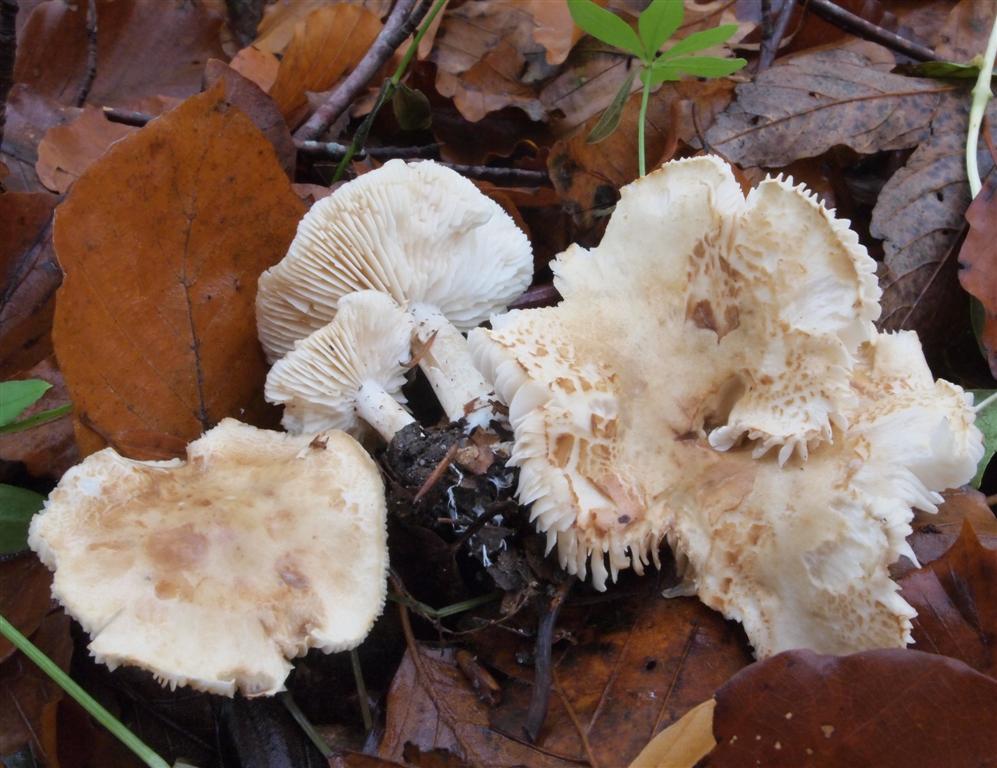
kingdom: Fungi
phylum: Basidiomycota
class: Agaricomycetes
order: Agaricales
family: Tricholomataceae
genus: Tricholoma
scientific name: Tricholoma lascivum
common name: stinkende ridderhat
